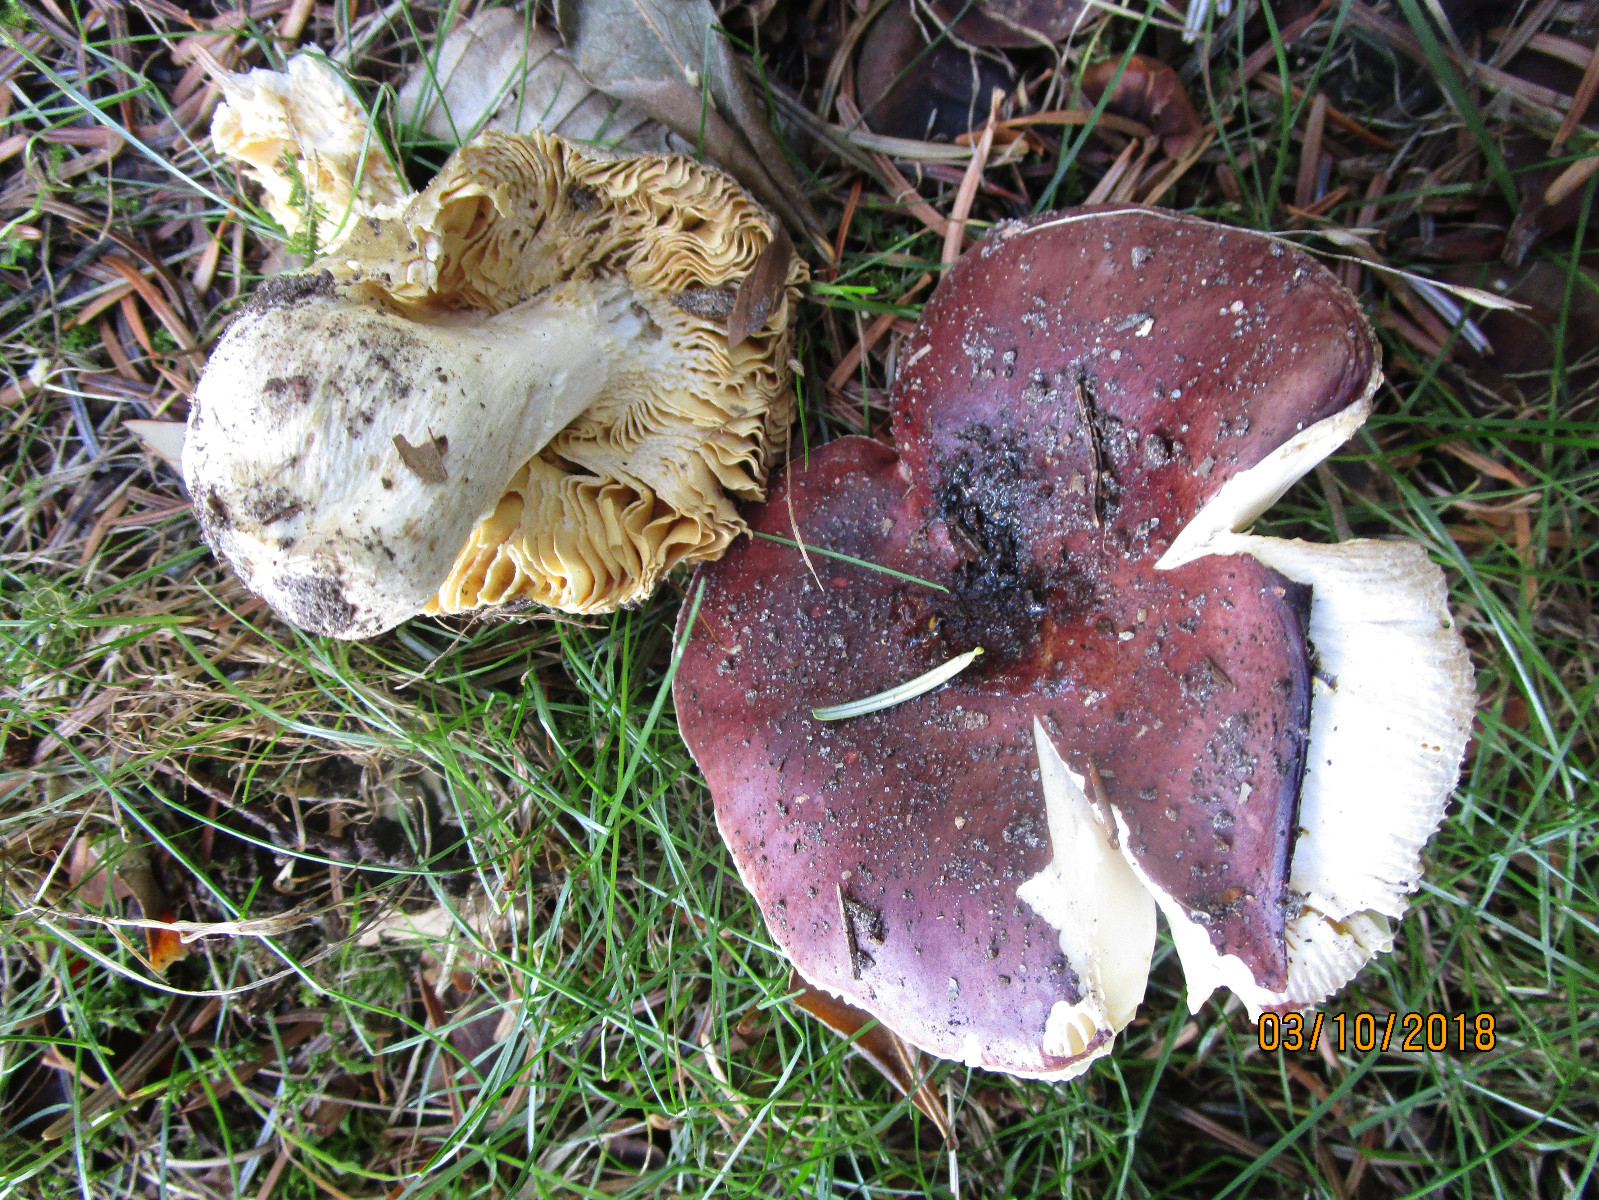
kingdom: Fungi
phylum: Basidiomycota
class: Agaricomycetes
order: Russulales
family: Russulaceae
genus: Russula
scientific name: Russula integra
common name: mandel-skørhat
